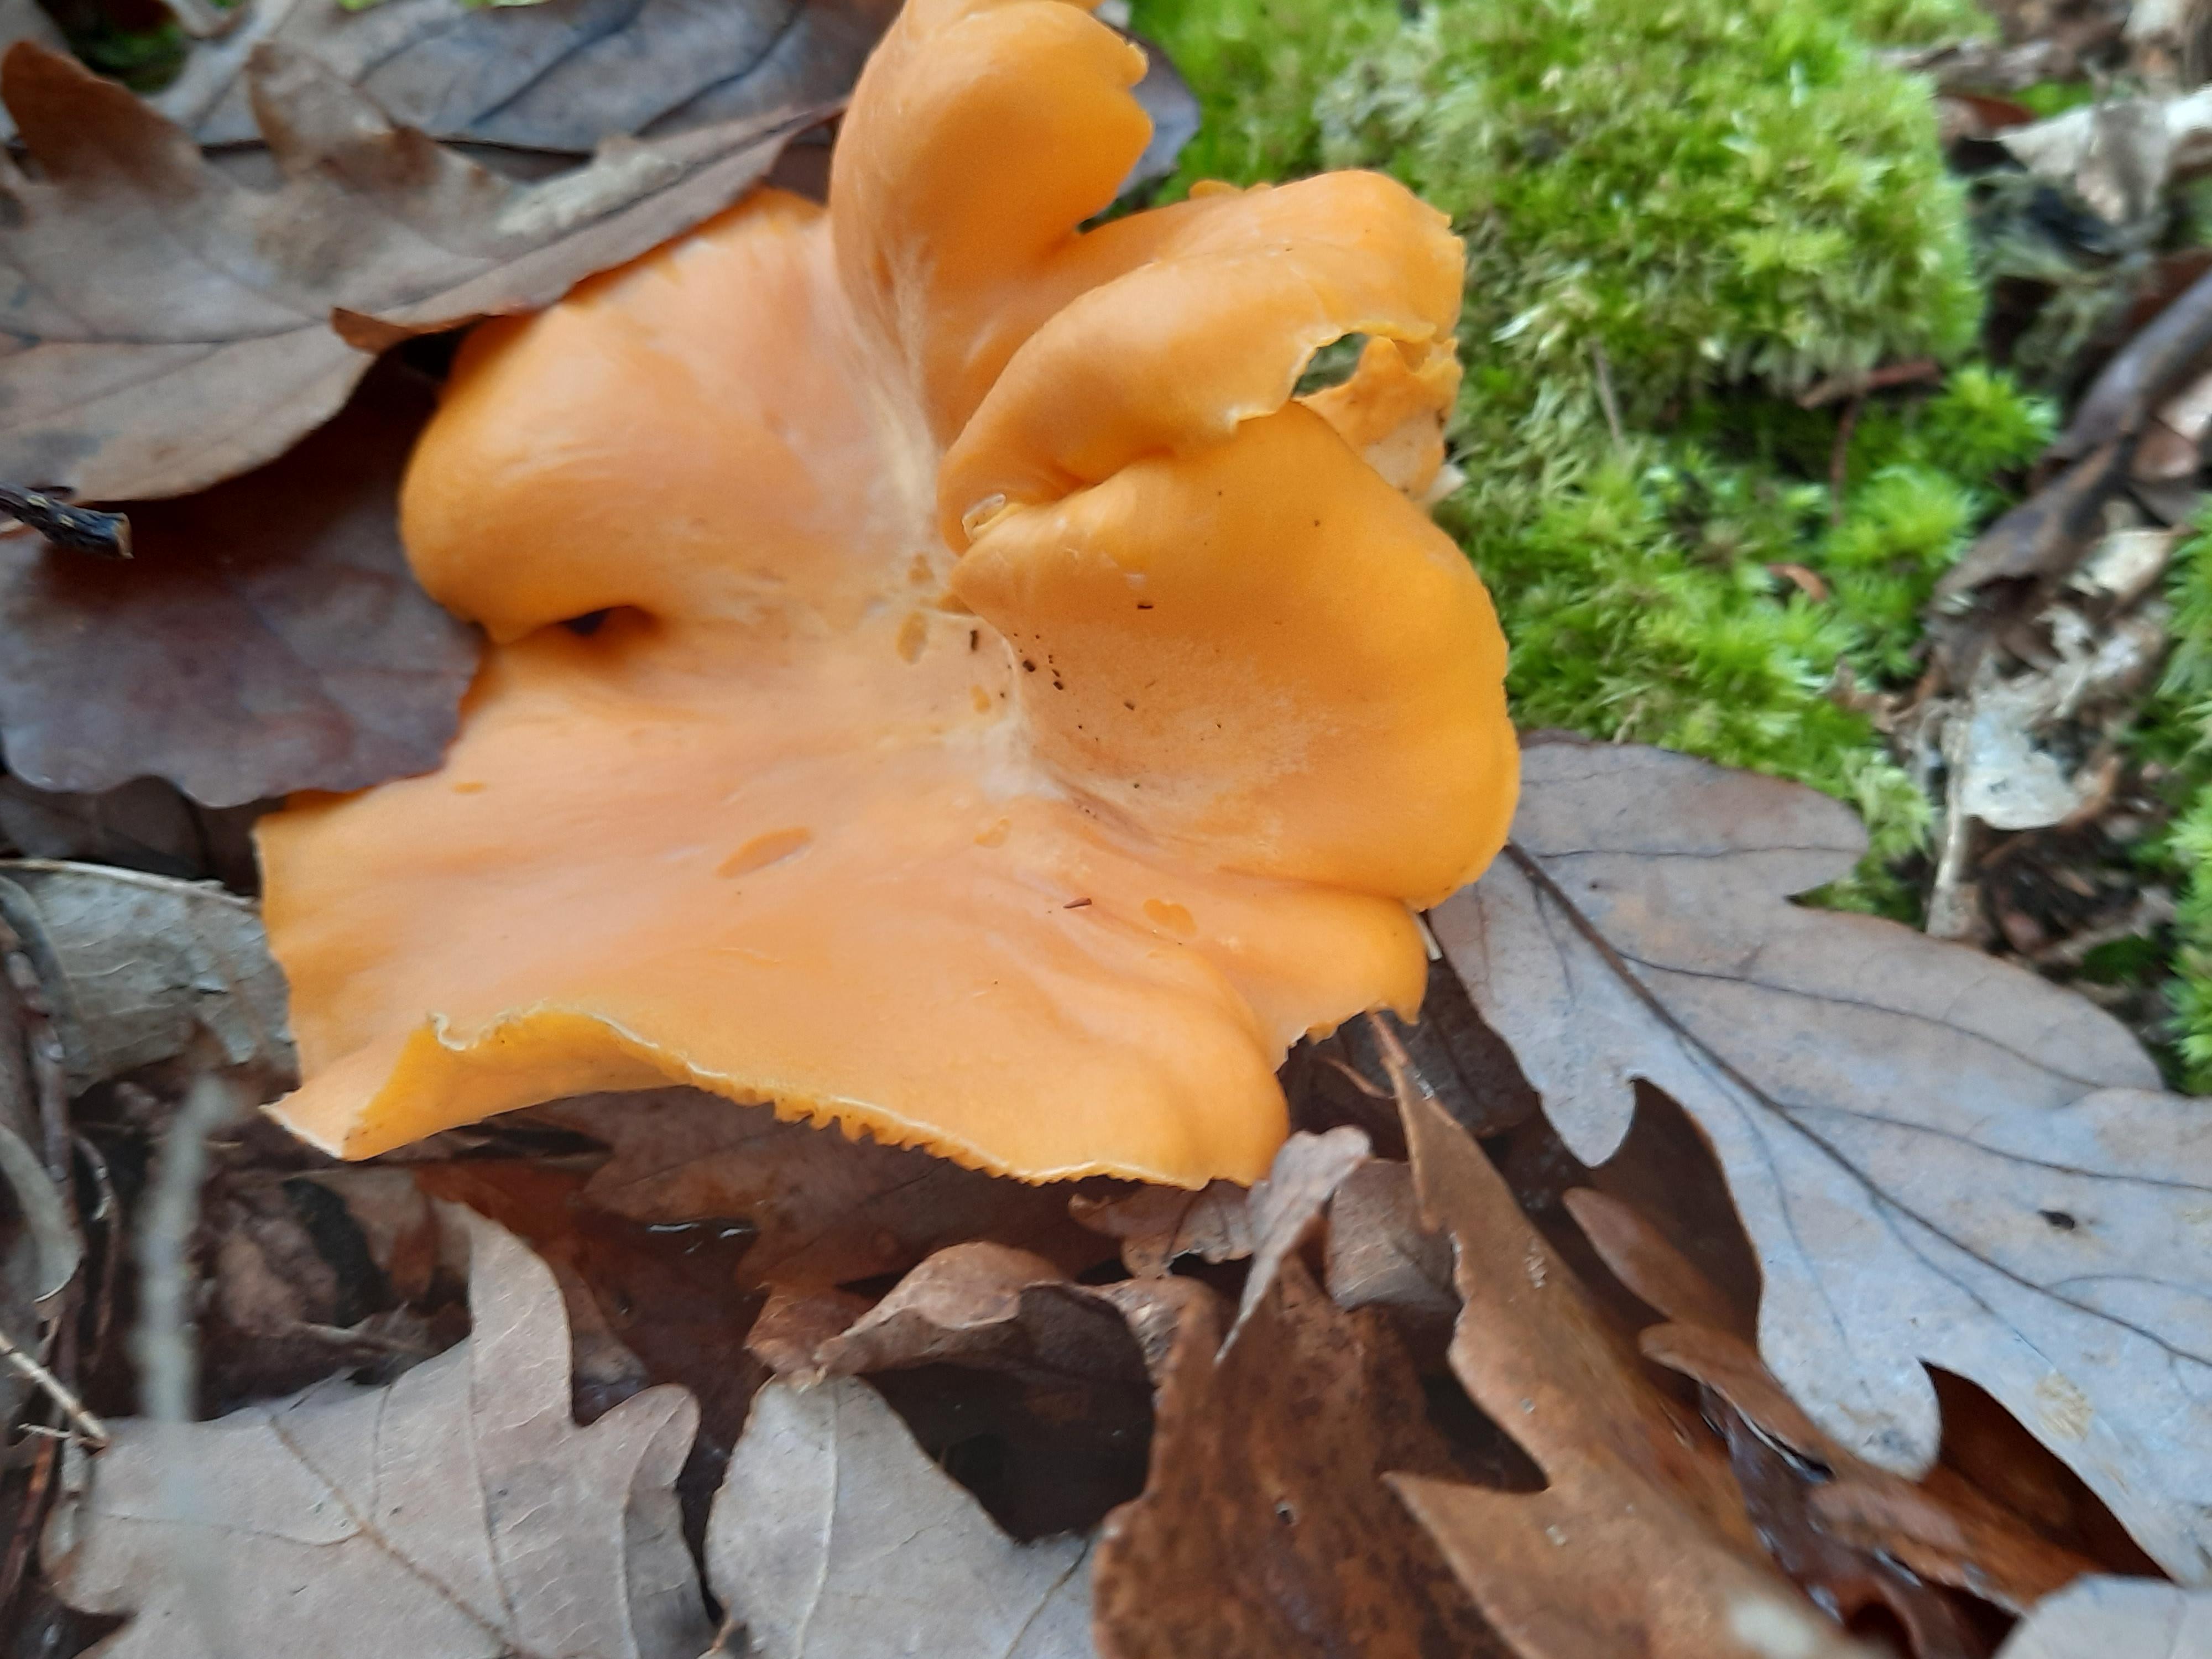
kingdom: Fungi
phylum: Basidiomycota
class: Agaricomycetes
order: Cantharellales
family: Hydnaceae
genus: Cantharellus
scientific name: Cantharellus cibarius
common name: almindelig kantarel
